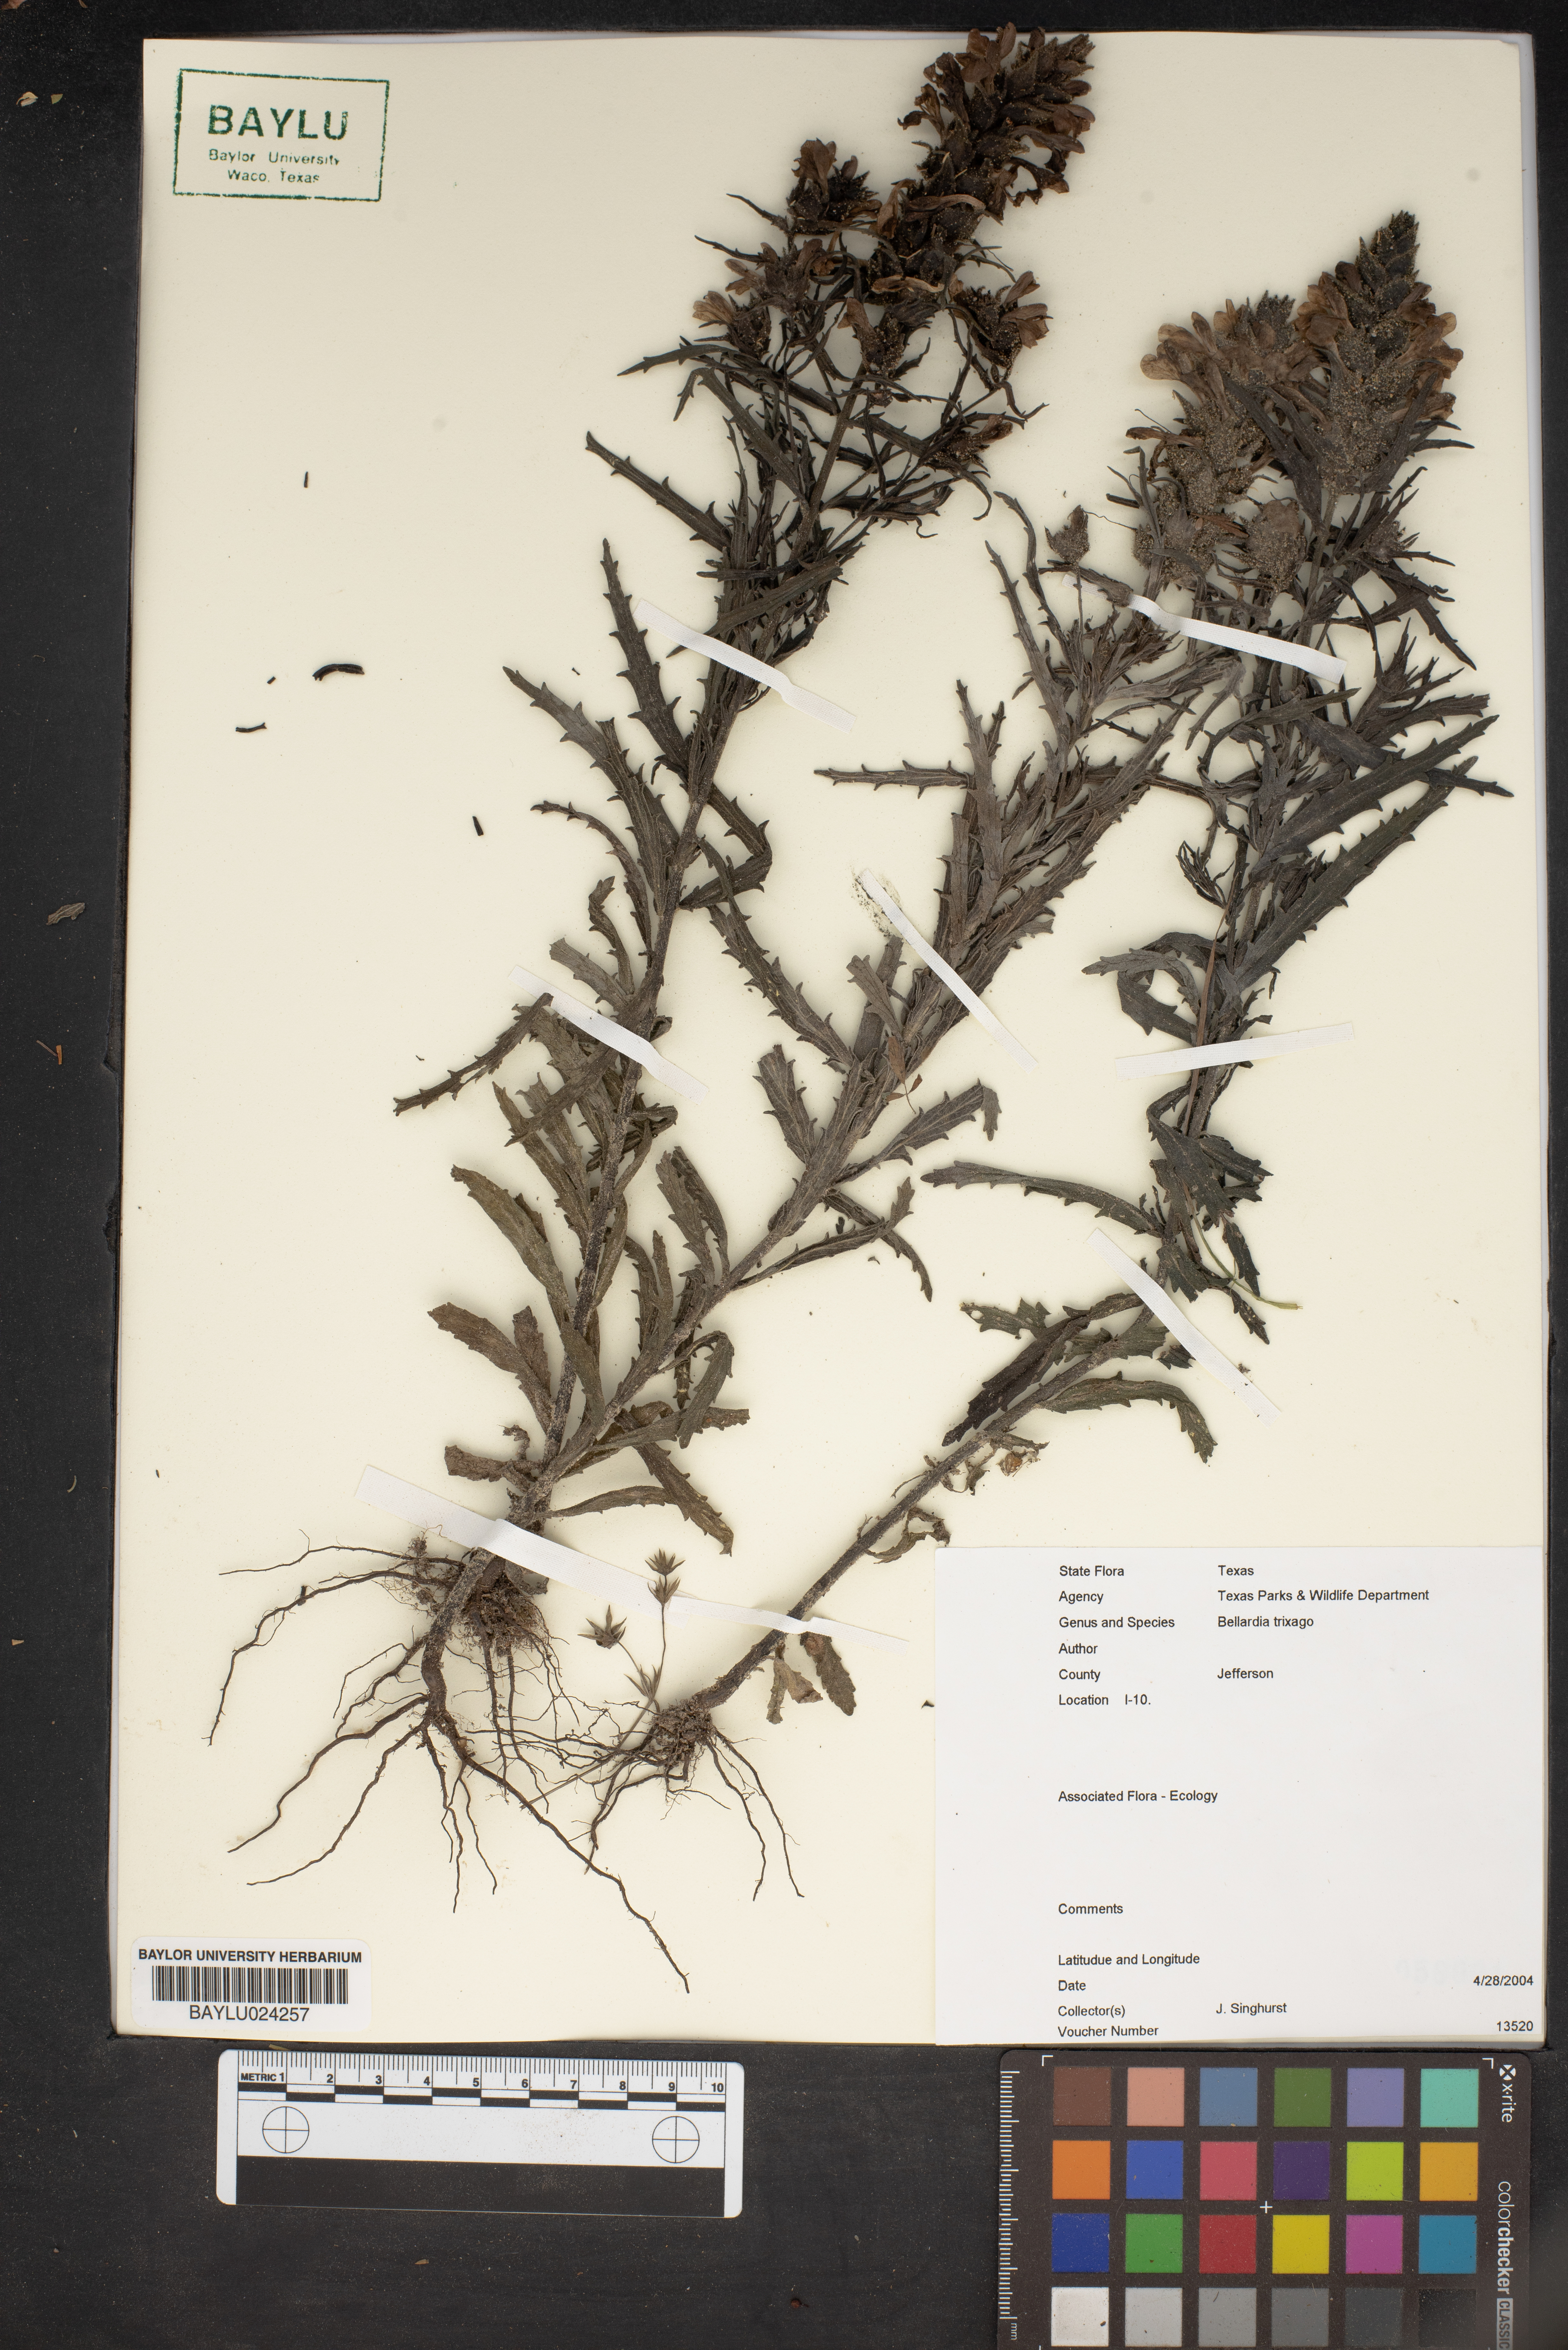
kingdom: Plantae
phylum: Tracheophyta
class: Magnoliopsida
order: Lamiales
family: Orobanchaceae
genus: Bellardia
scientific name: Bellardia trixago
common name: Mediterranean lineseed
